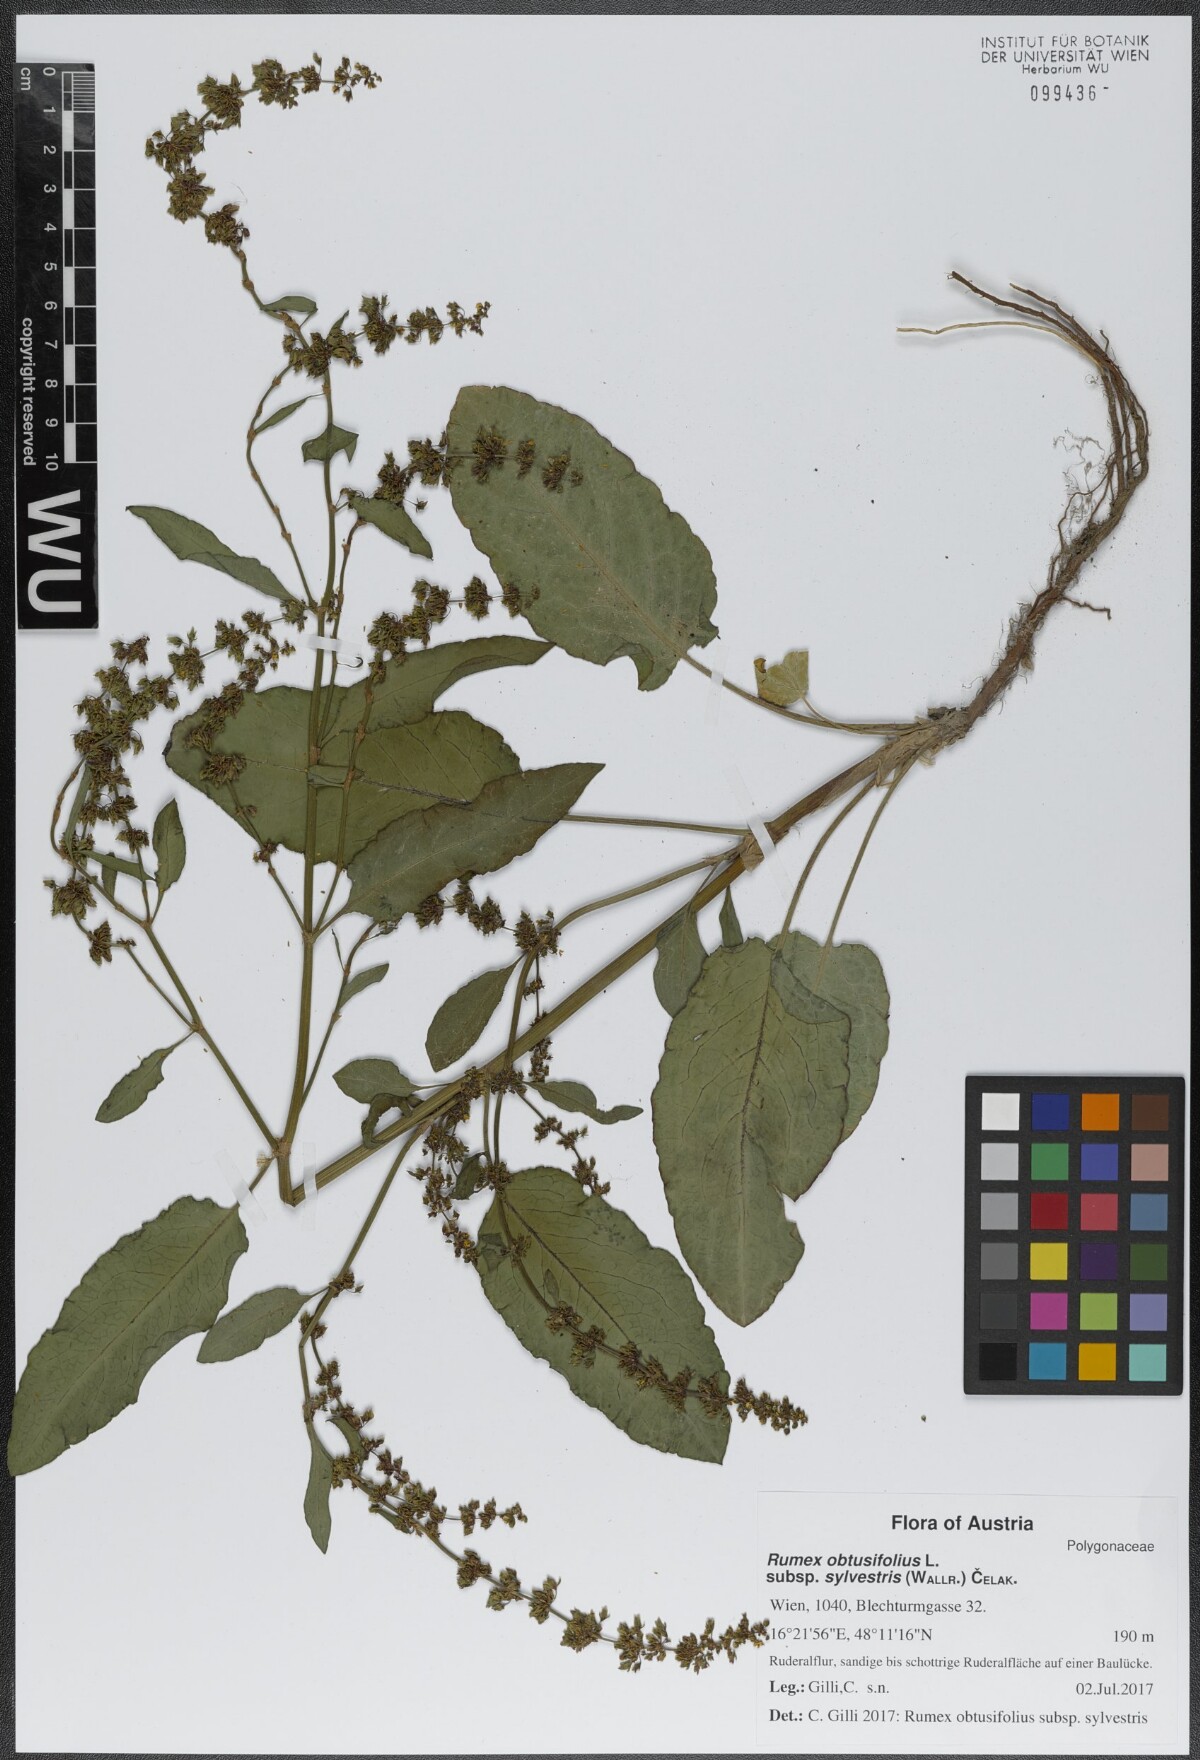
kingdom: Plantae
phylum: Tracheophyta
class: Magnoliopsida
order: Caryophyllales
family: Polygonaceae
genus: Rumex
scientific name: Rumex obtusifolius
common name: Bitter dock
